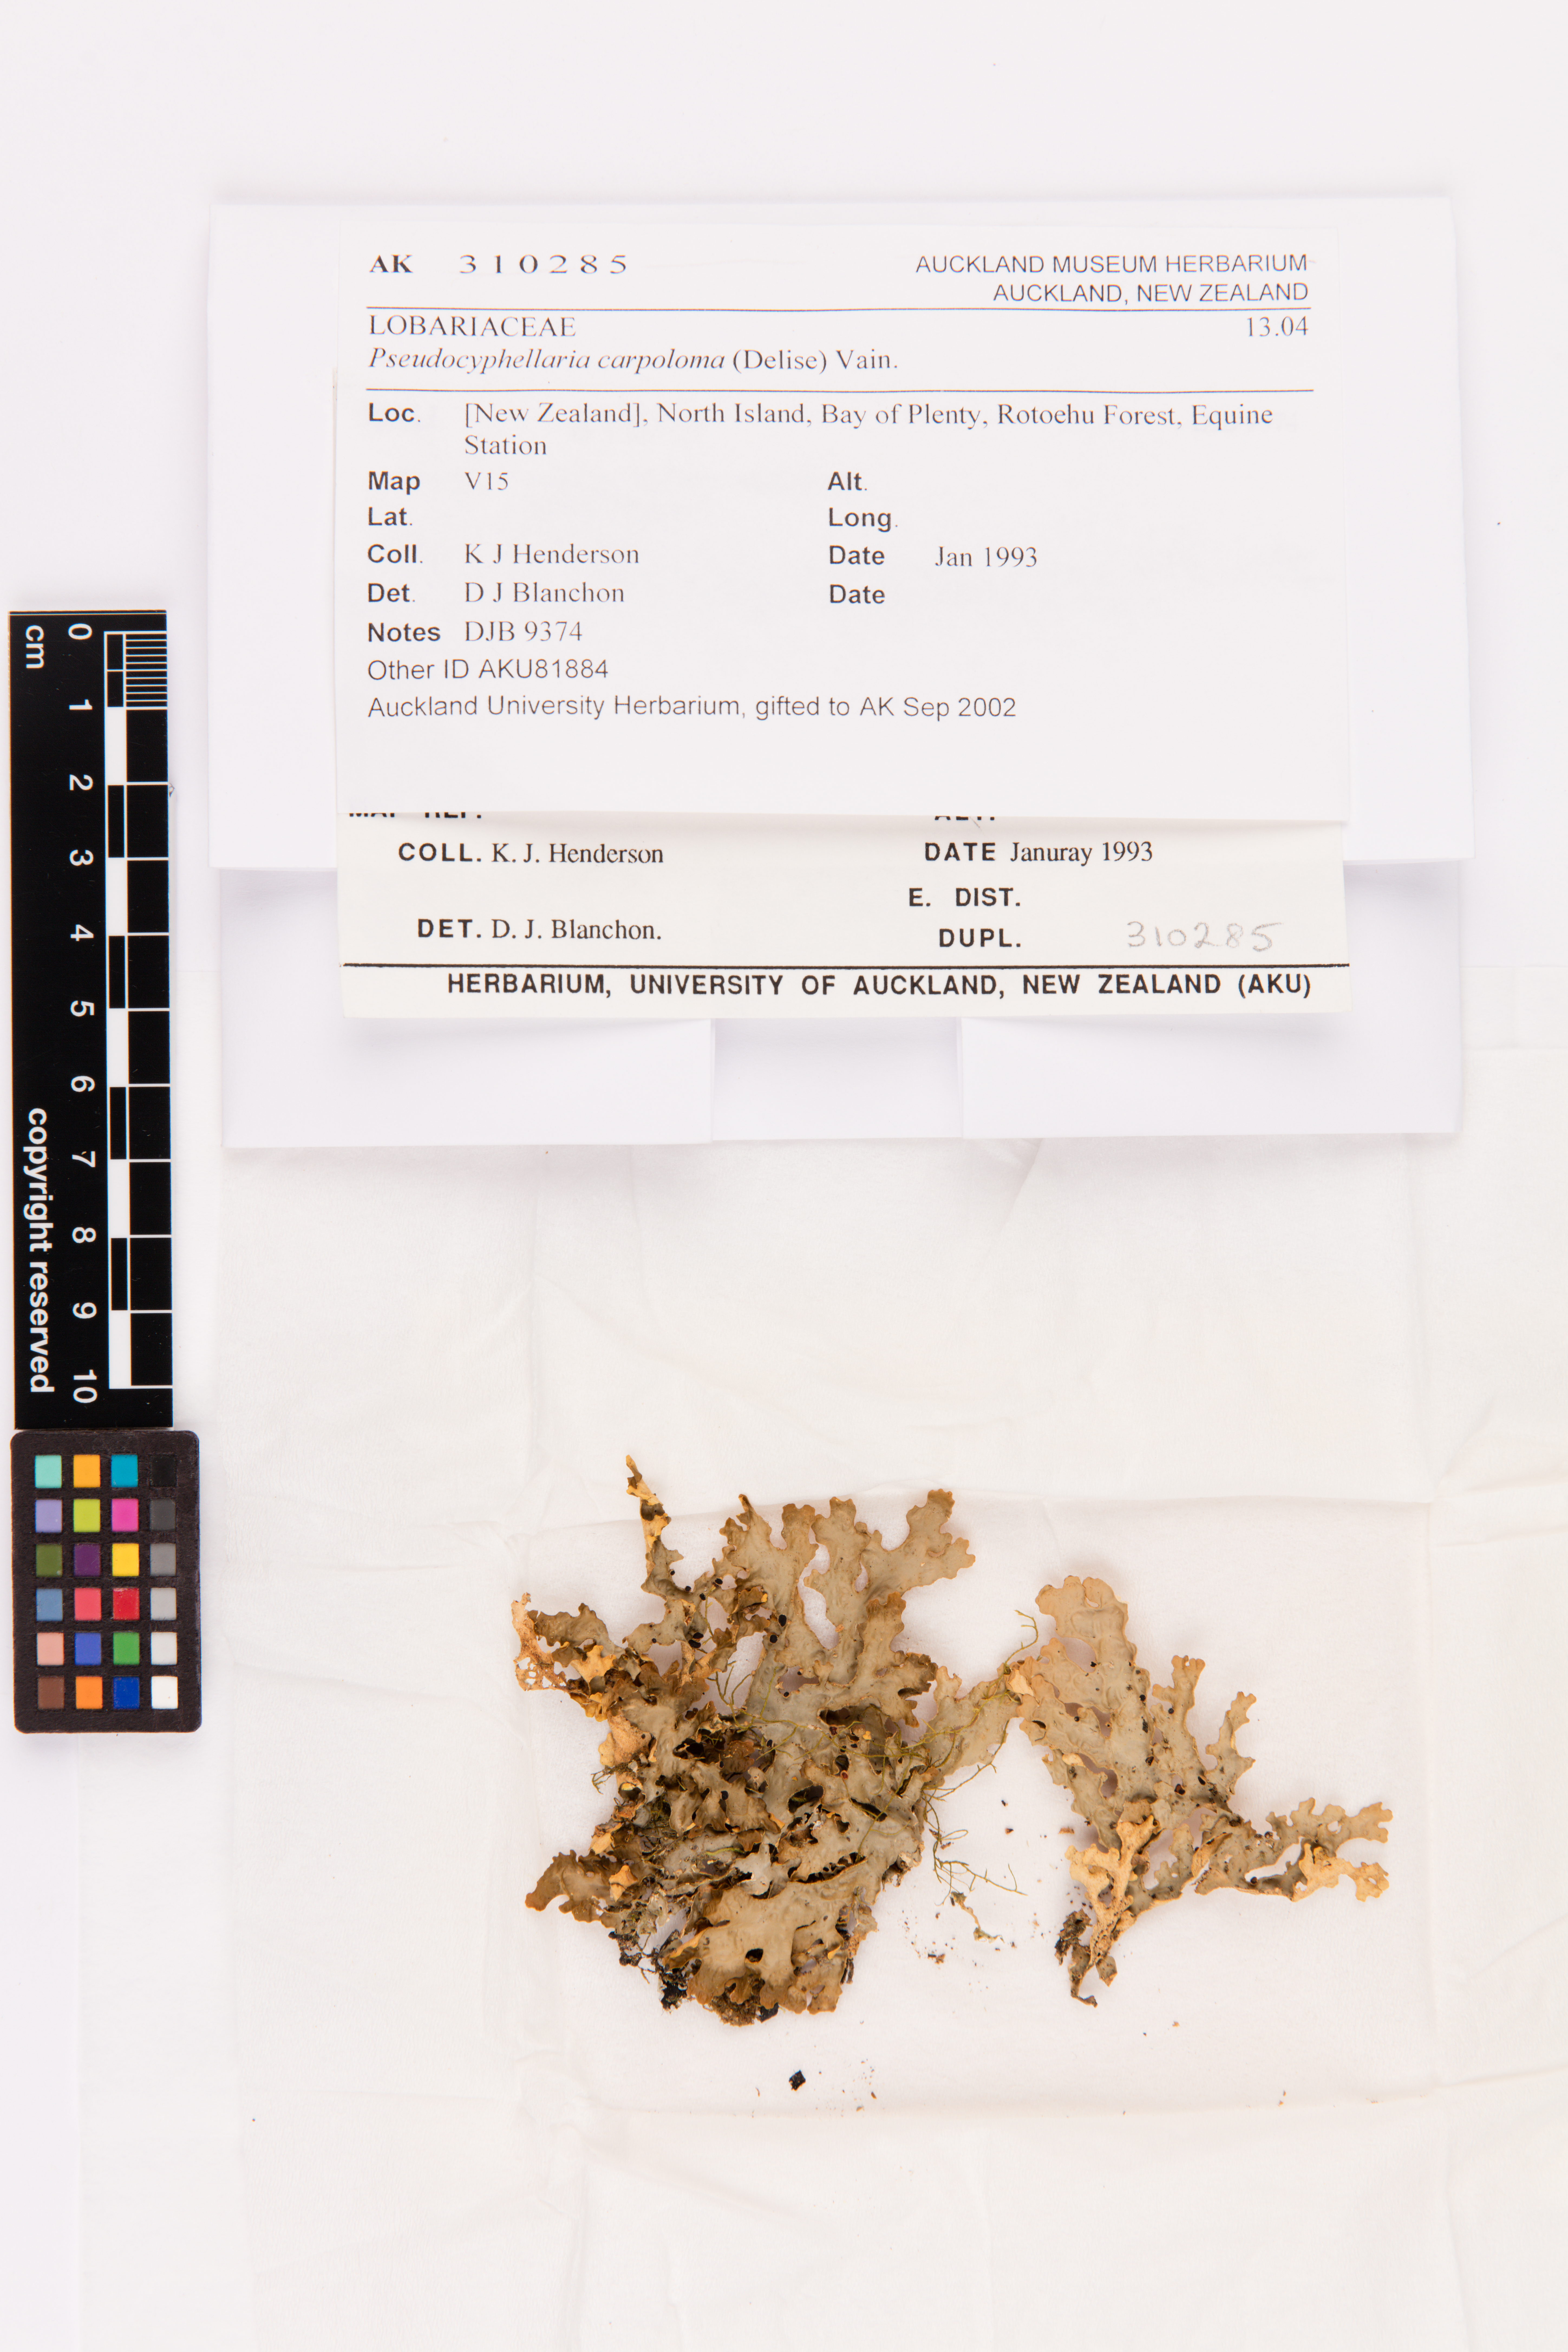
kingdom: Fungi
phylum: Ascomycota
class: Lecanoromycetes
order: Peltigerales
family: Lobariaceae
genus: Pseudocyphellaria
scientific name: Pseudocyphellaria carpoloma
